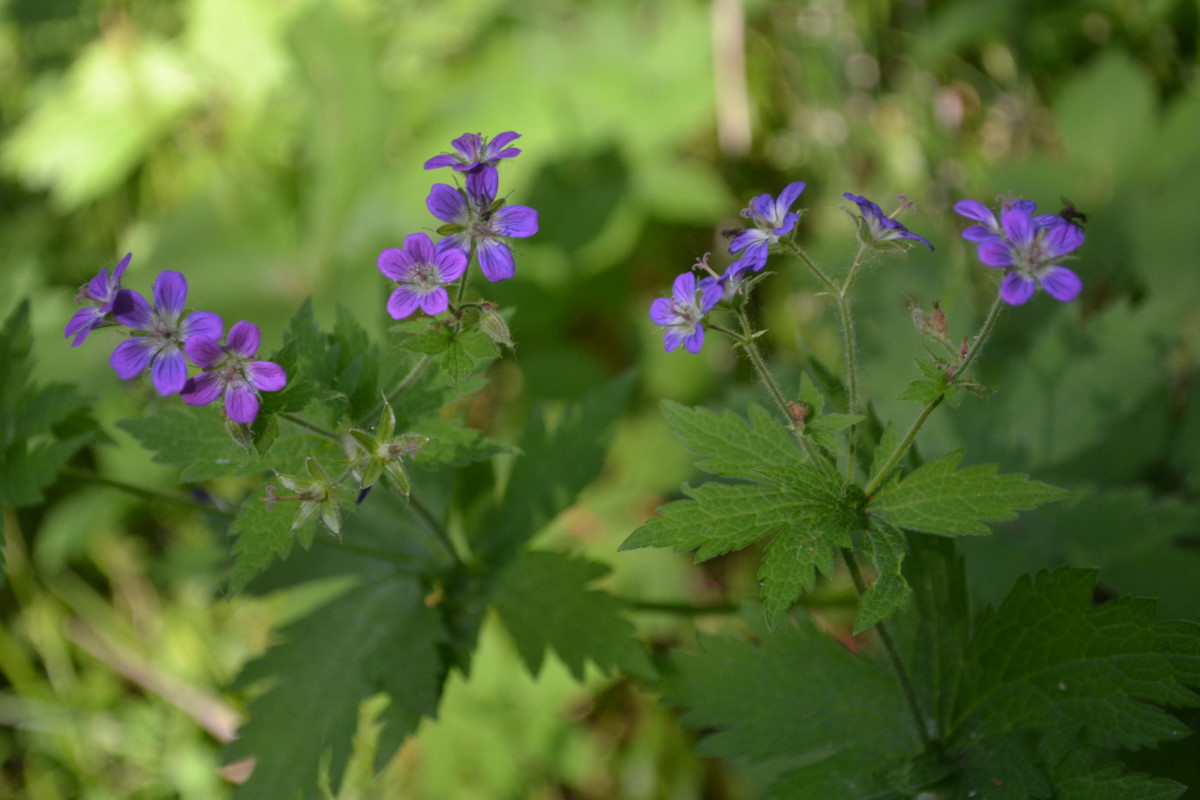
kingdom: Plantae
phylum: Tracheophyta
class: Magnoliopsida
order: Geraniales
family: Geraniaceae
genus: Geranium
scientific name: Geranium sylvaticum
